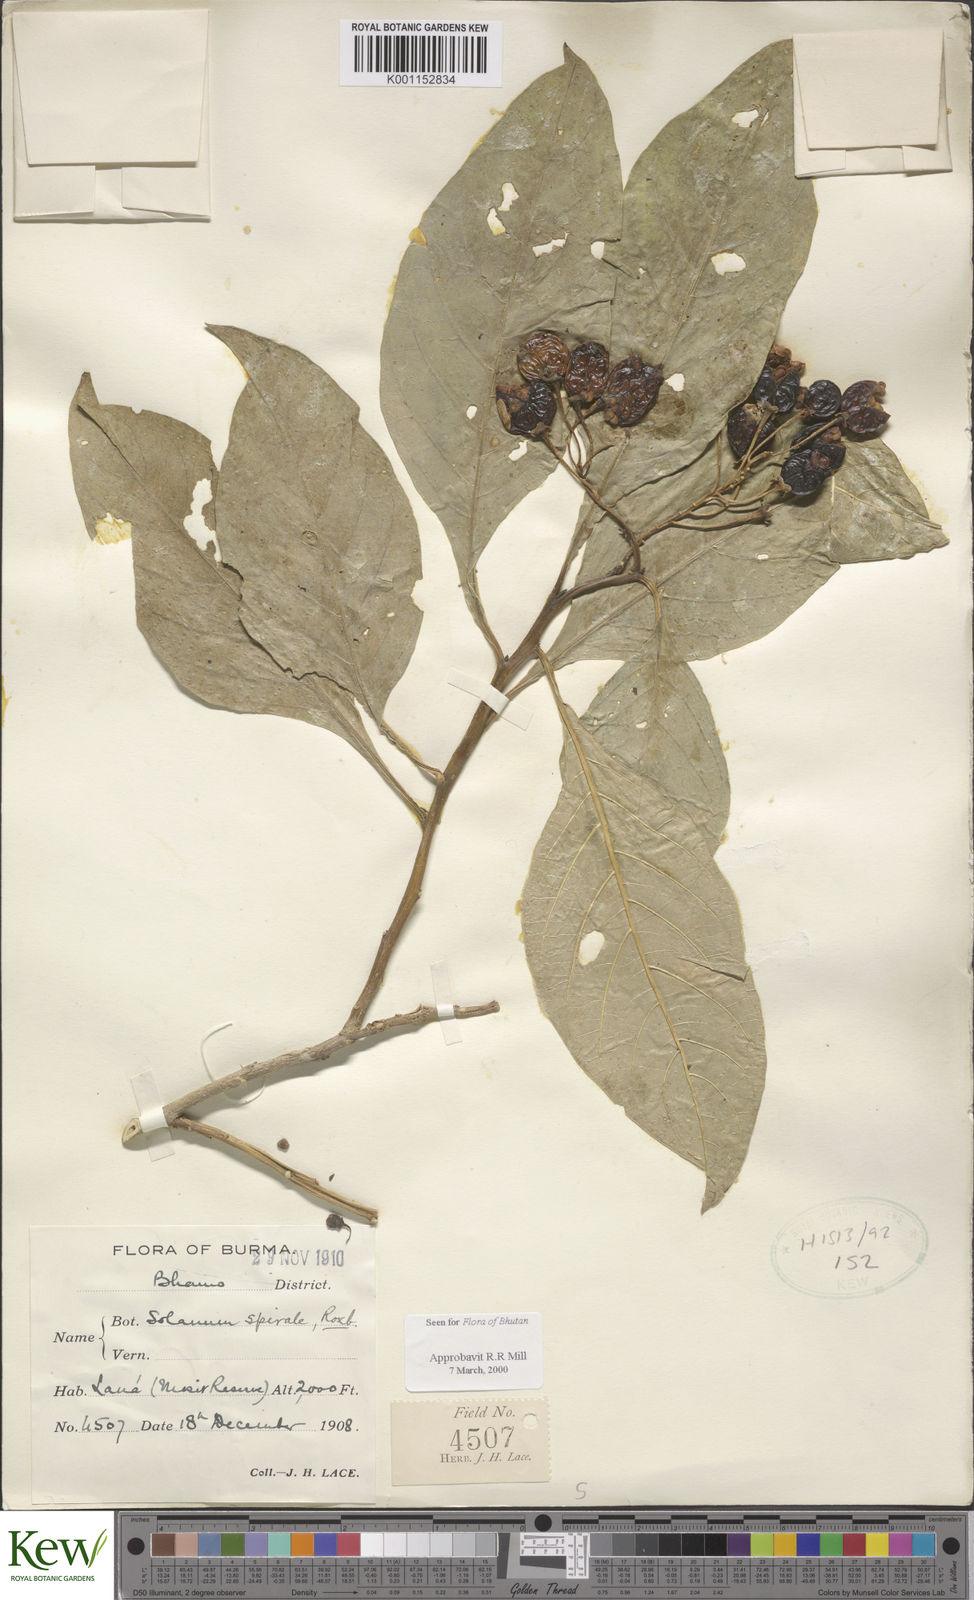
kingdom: Plantae
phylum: Tracheophyta
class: Magnoliopsida
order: Solanales
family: Solanaceae
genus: Solanum
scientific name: Solanum spirale
